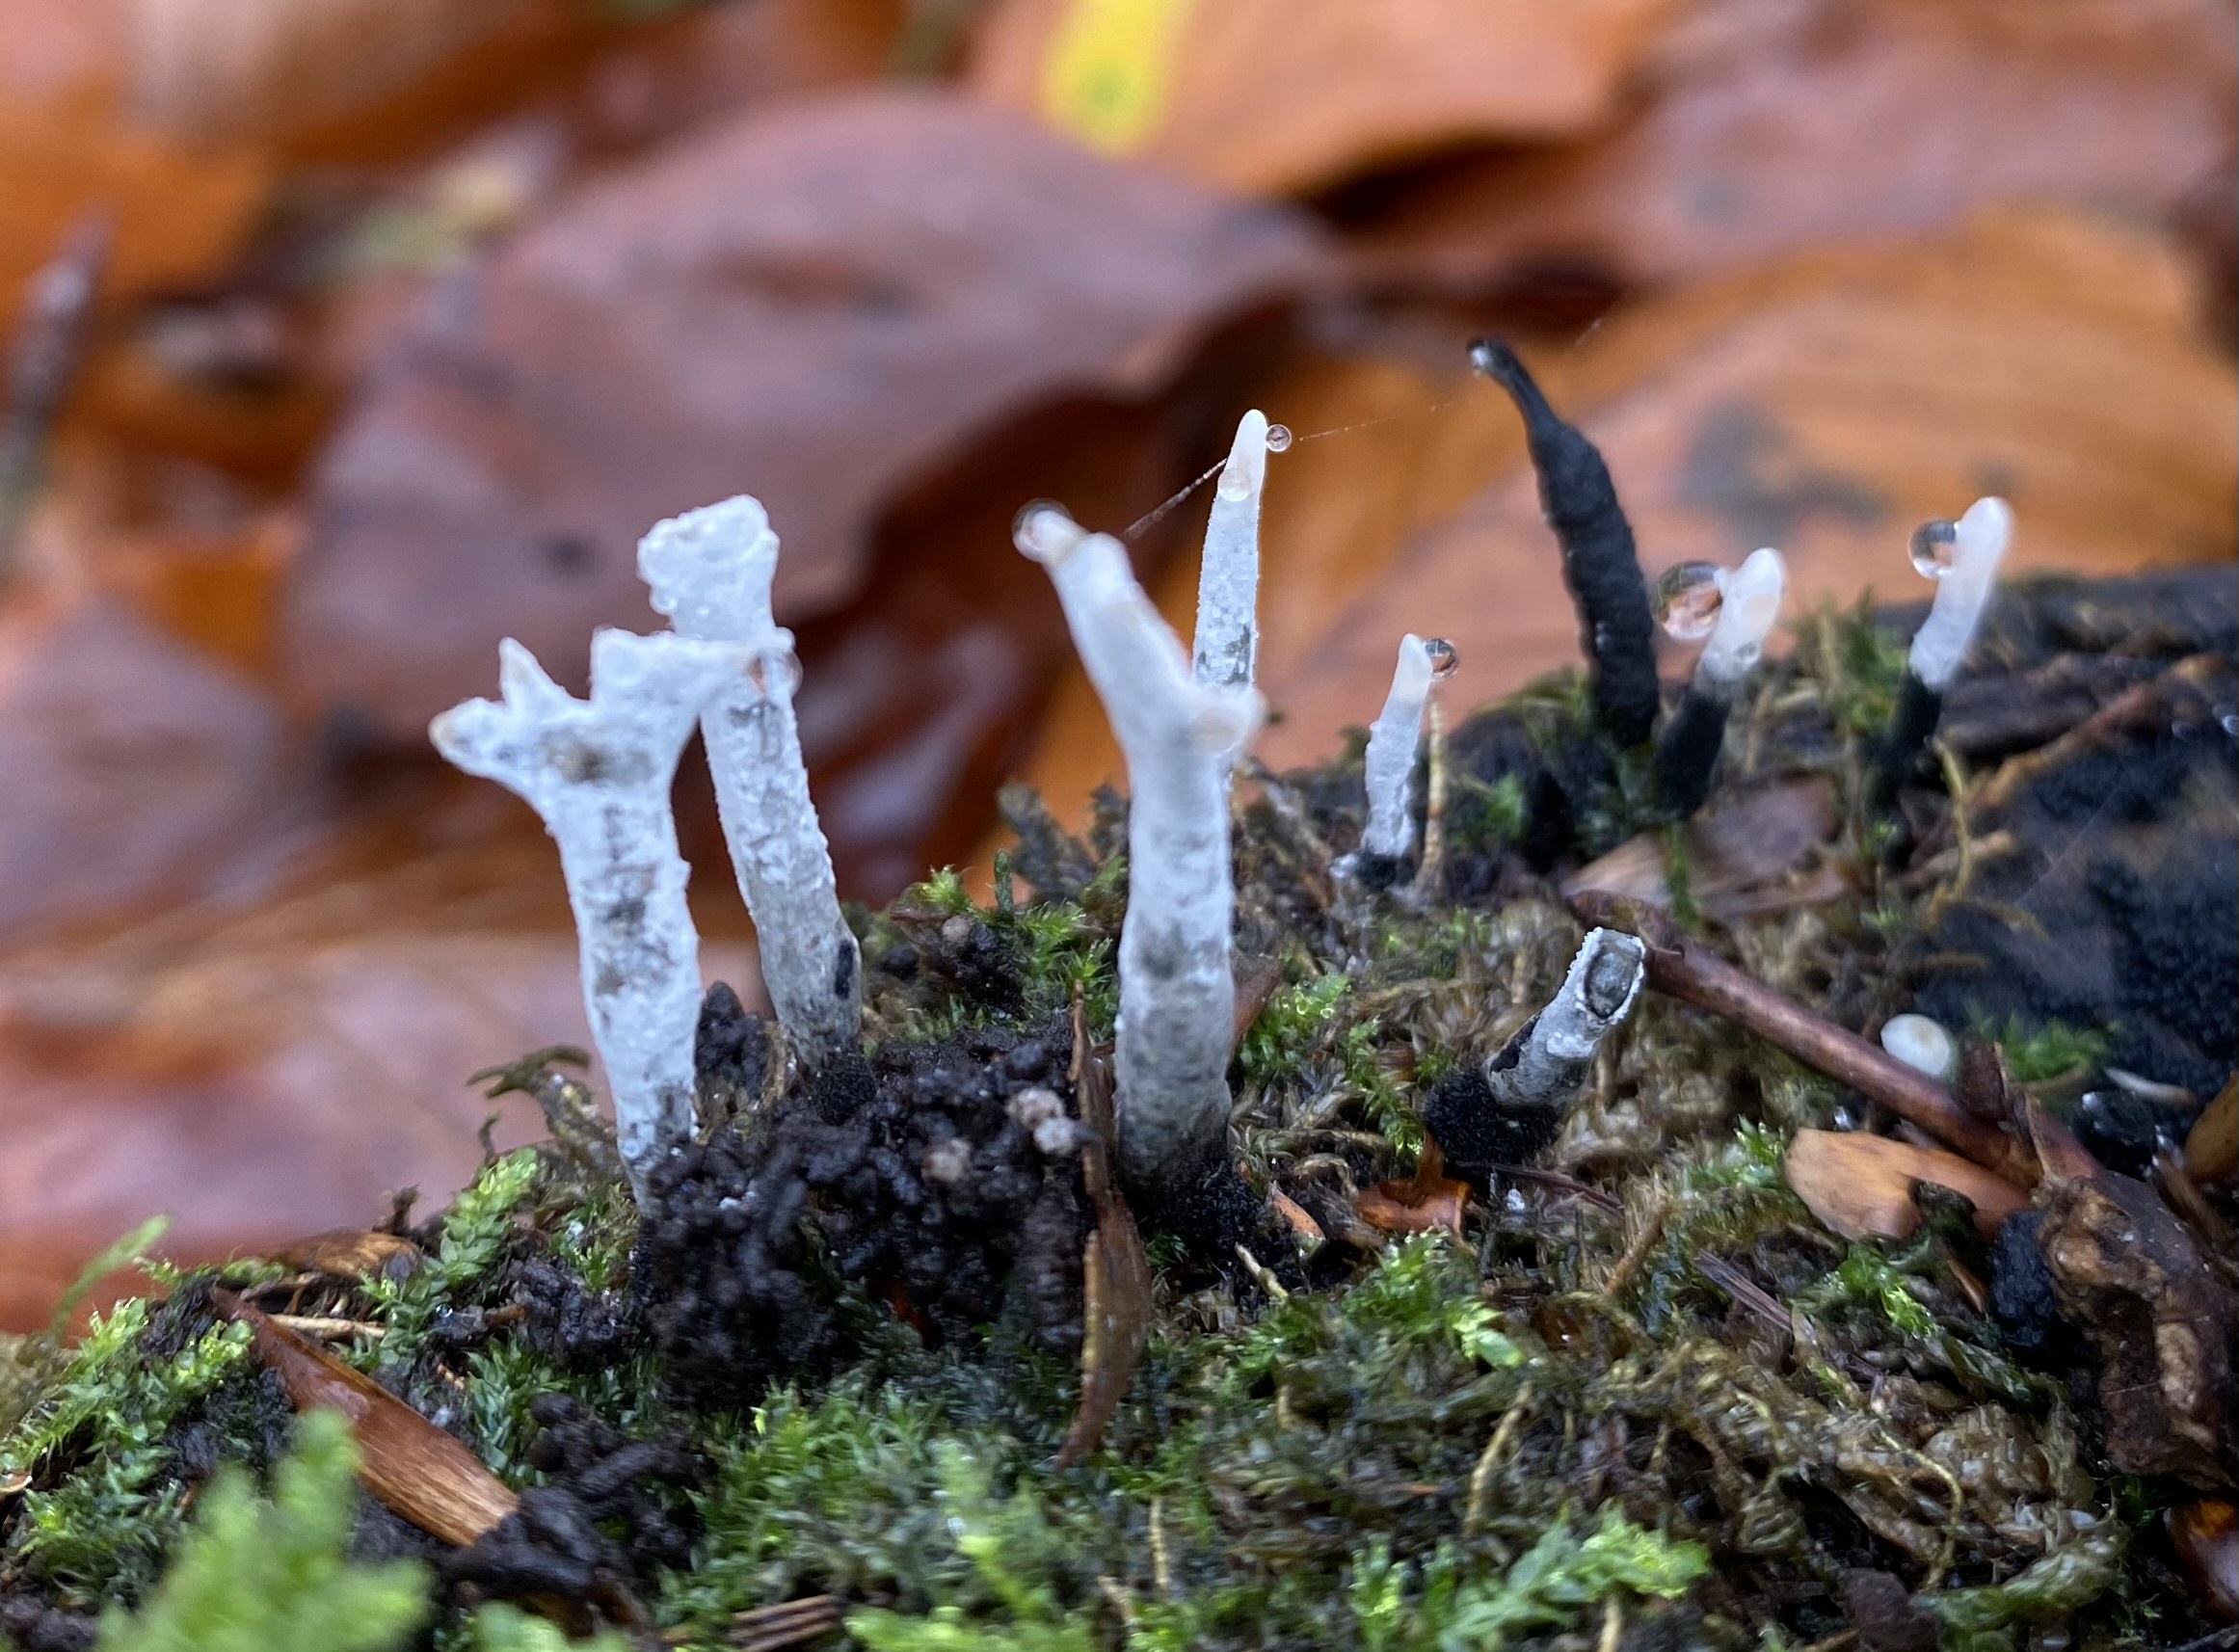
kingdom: Fungi
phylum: Ascomycota
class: Sordariomycetes
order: Xylariales
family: Xylariaceae
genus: Xylaria
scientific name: Xylaria hypoxylon
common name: grenet stødsvamp
